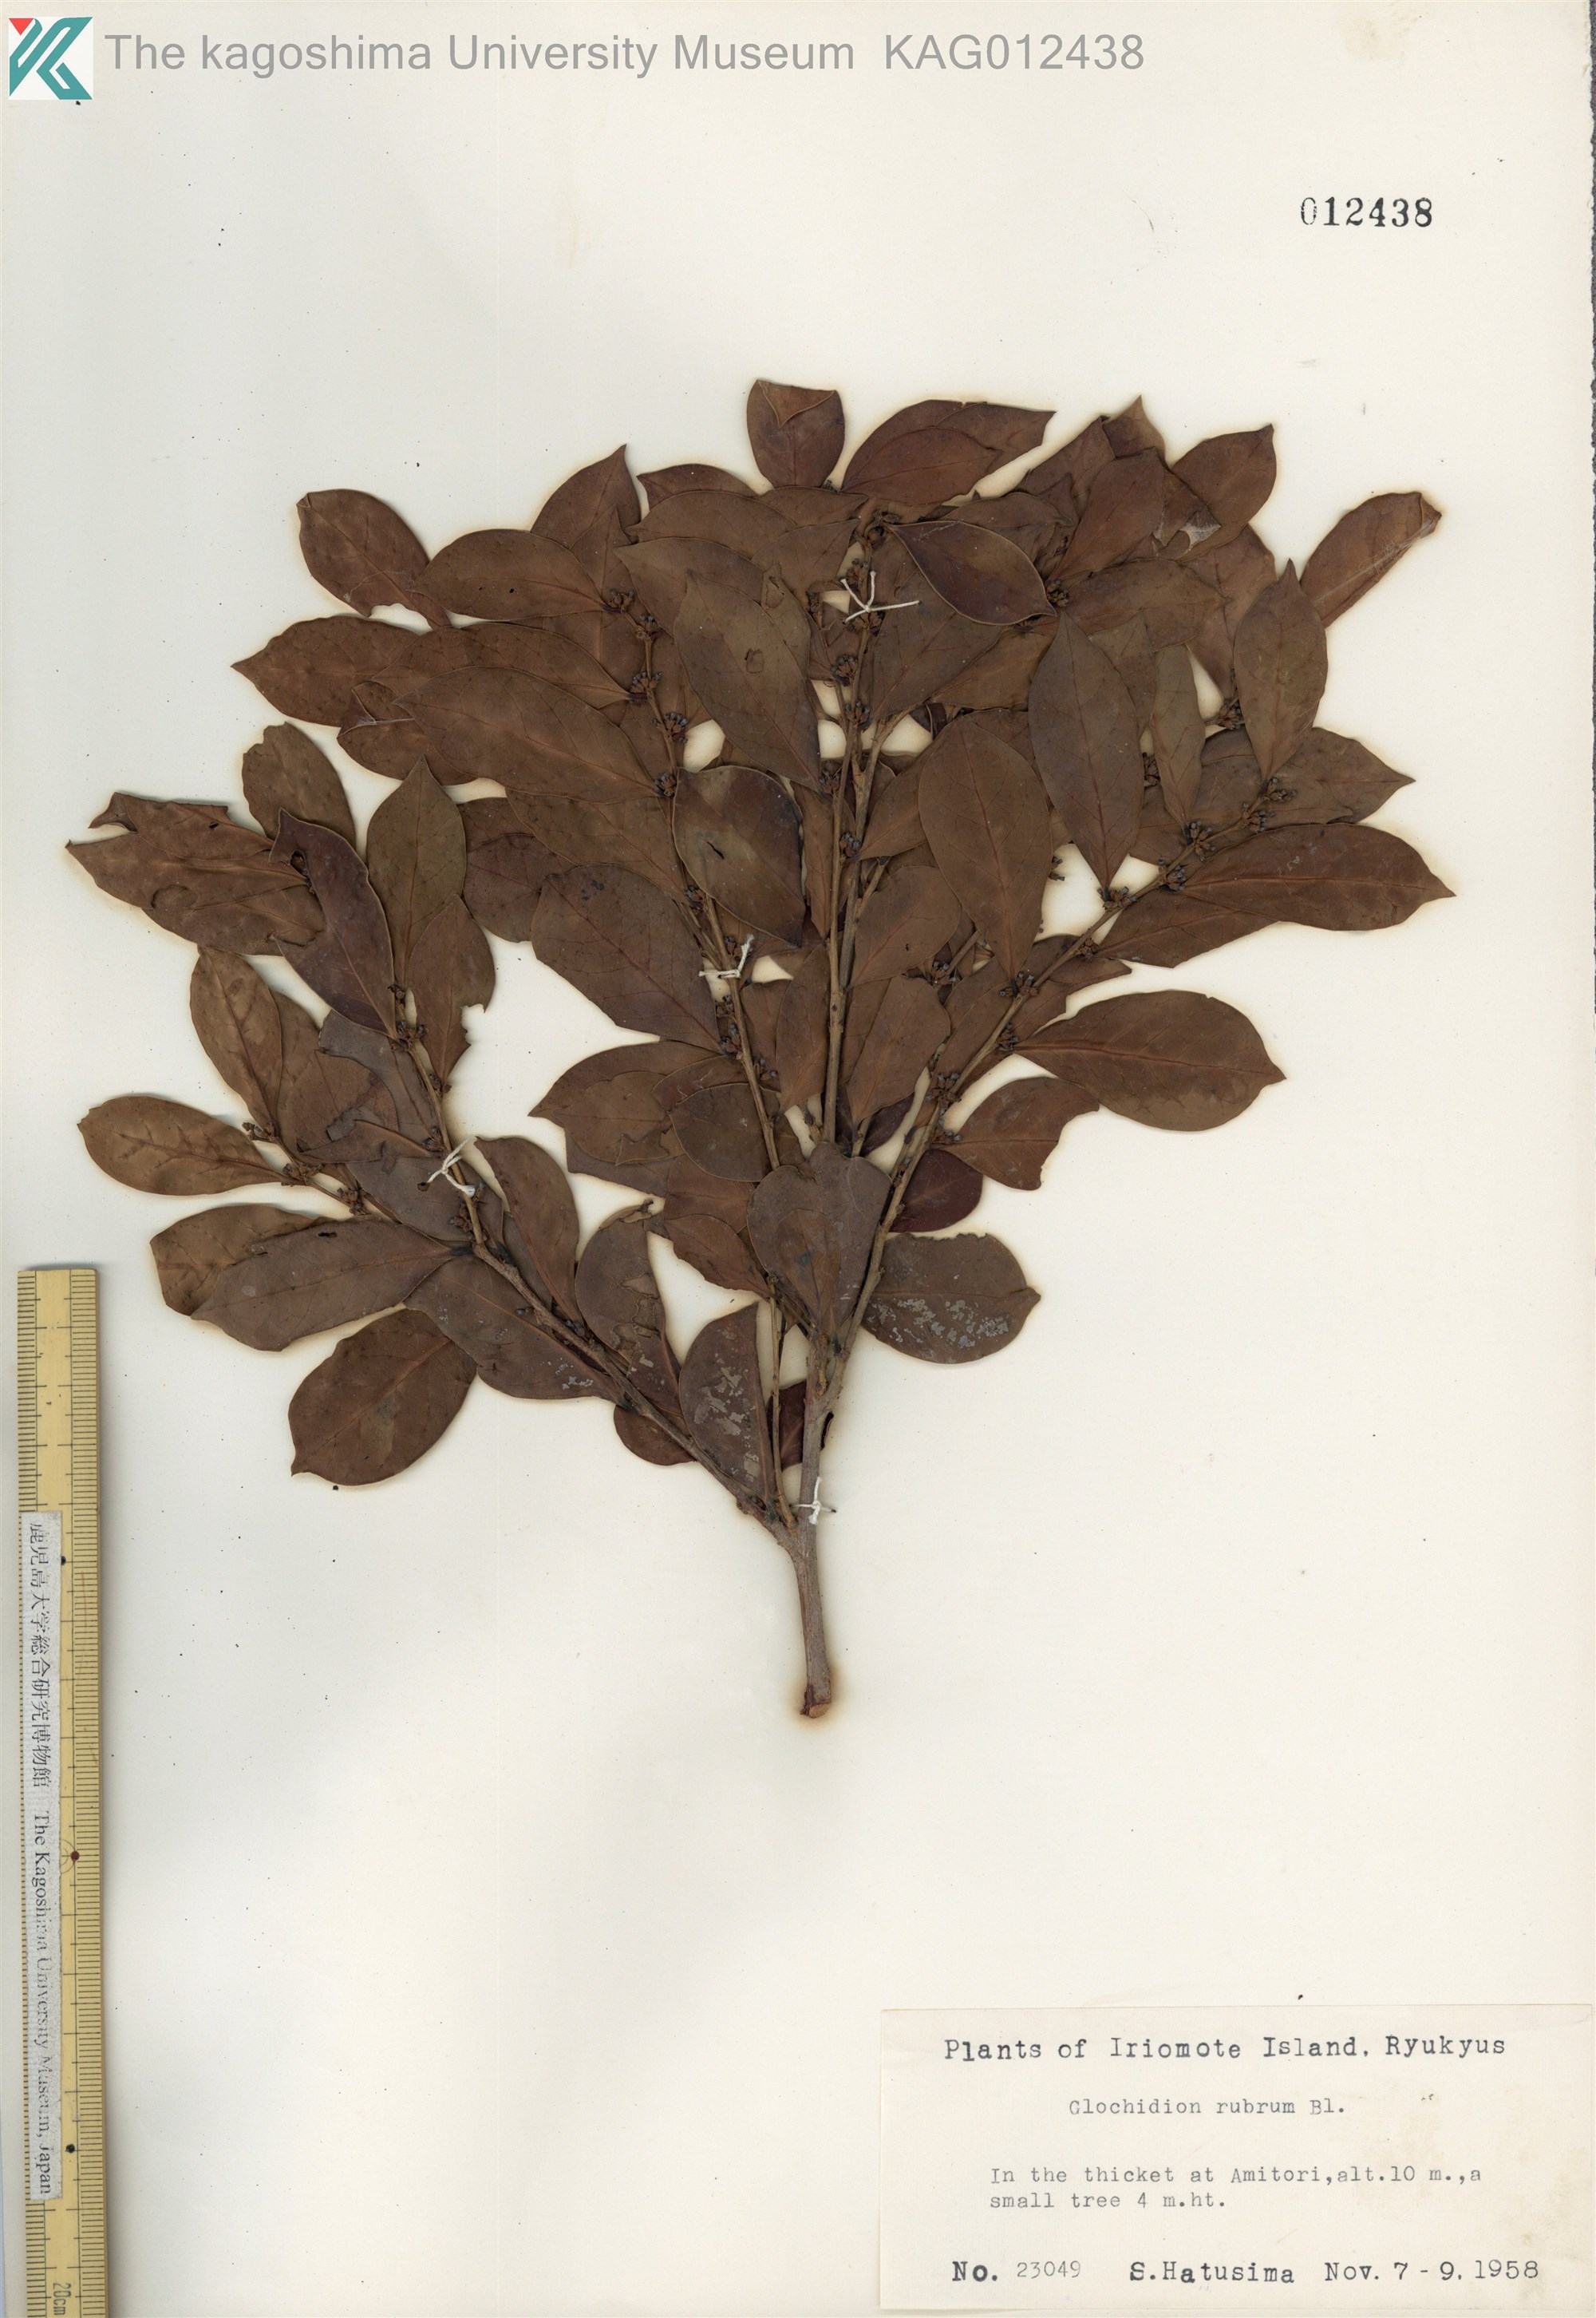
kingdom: Plantae
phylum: Tracheophyta
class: Magnoliopsida
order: Malpighiales
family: Phyllanthaceae
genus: Glochidion
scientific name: Glochidion rubrum
